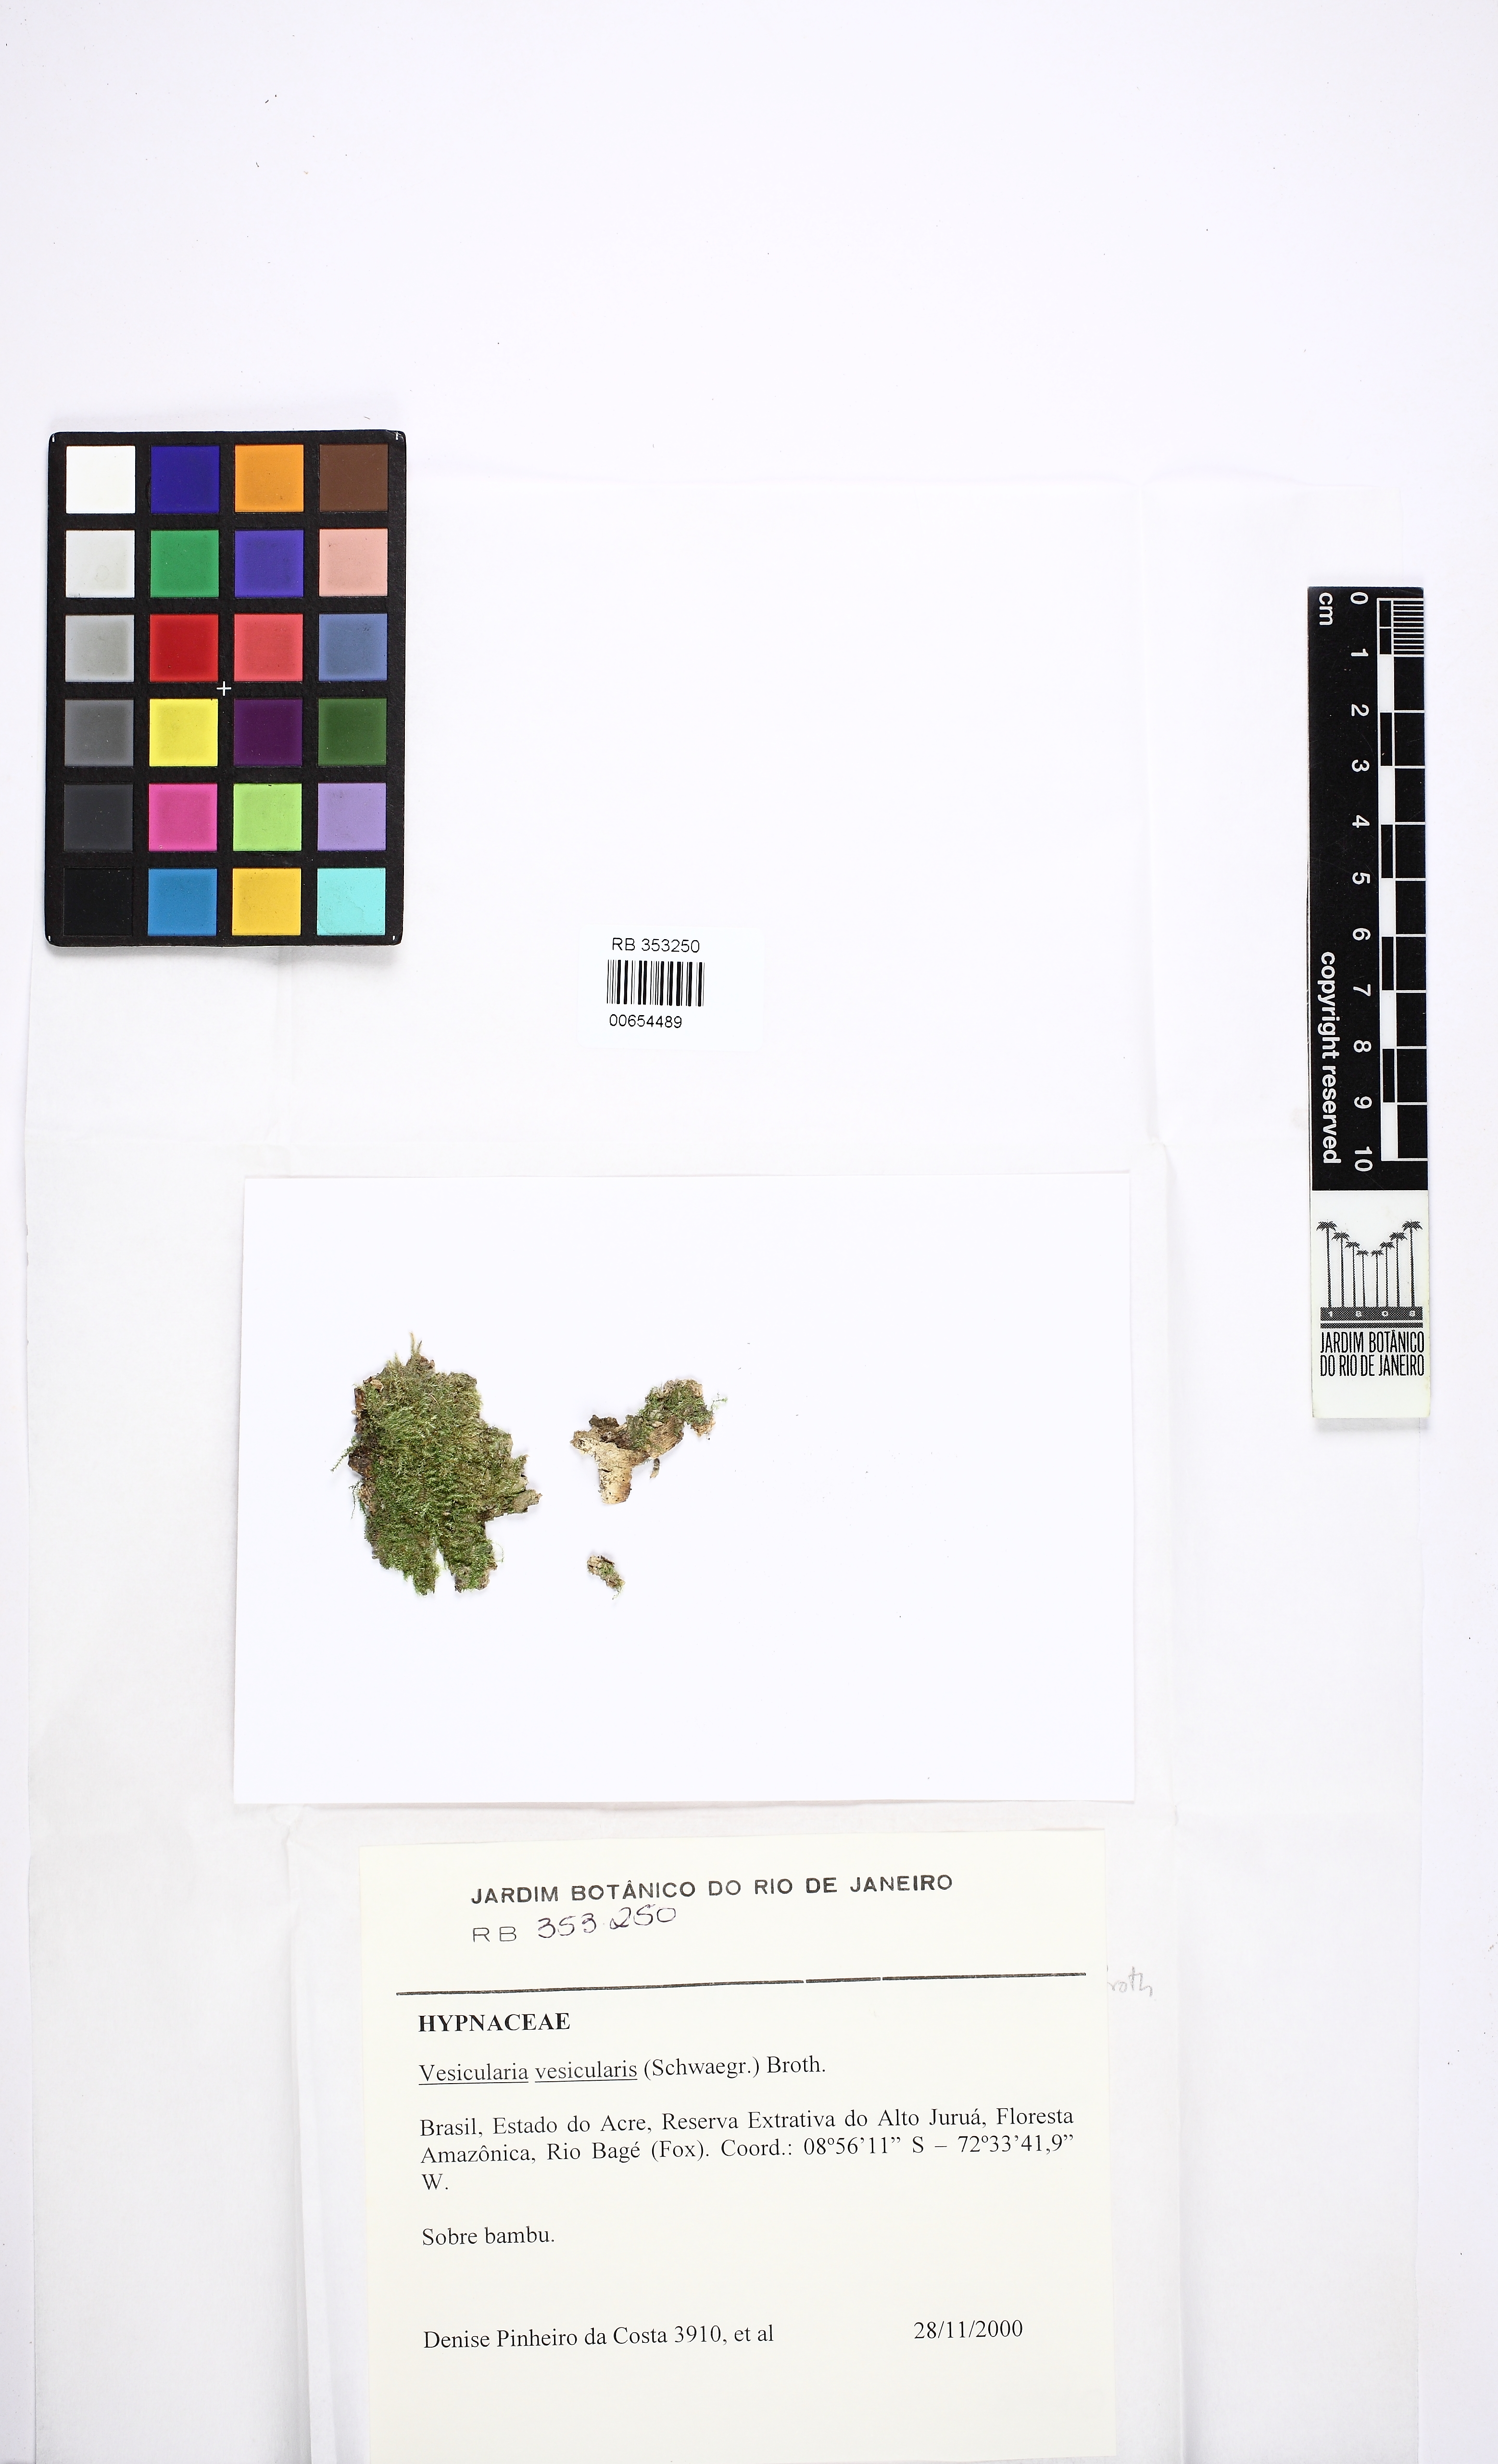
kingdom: Plantae
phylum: Bryophyta
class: Bryopsida
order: Hypnales
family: Hypnaceae
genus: Vesicularia
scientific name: Vesicularia vesicularis
